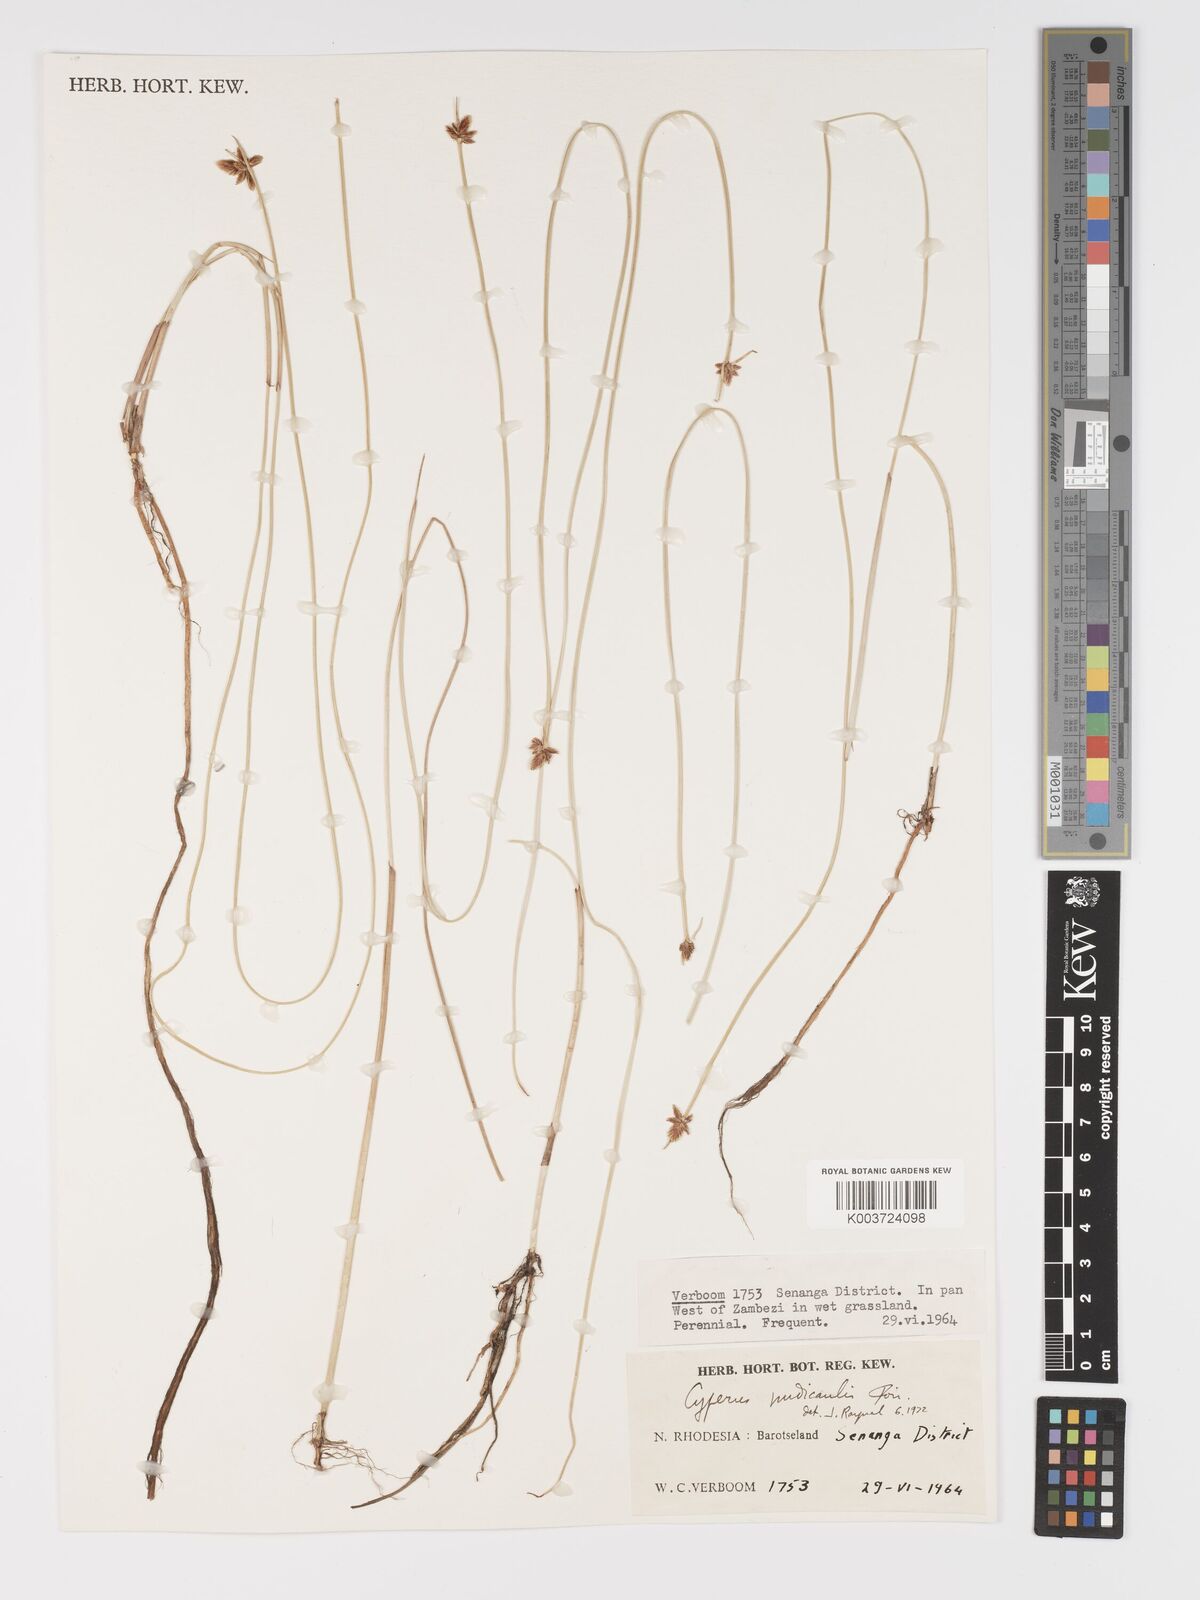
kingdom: Plantae
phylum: Tracheophyta
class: Liliopsida
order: Poales
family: Cyperaceae
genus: Cyperus
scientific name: Cyperus compressus
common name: Poorland flatsedge
